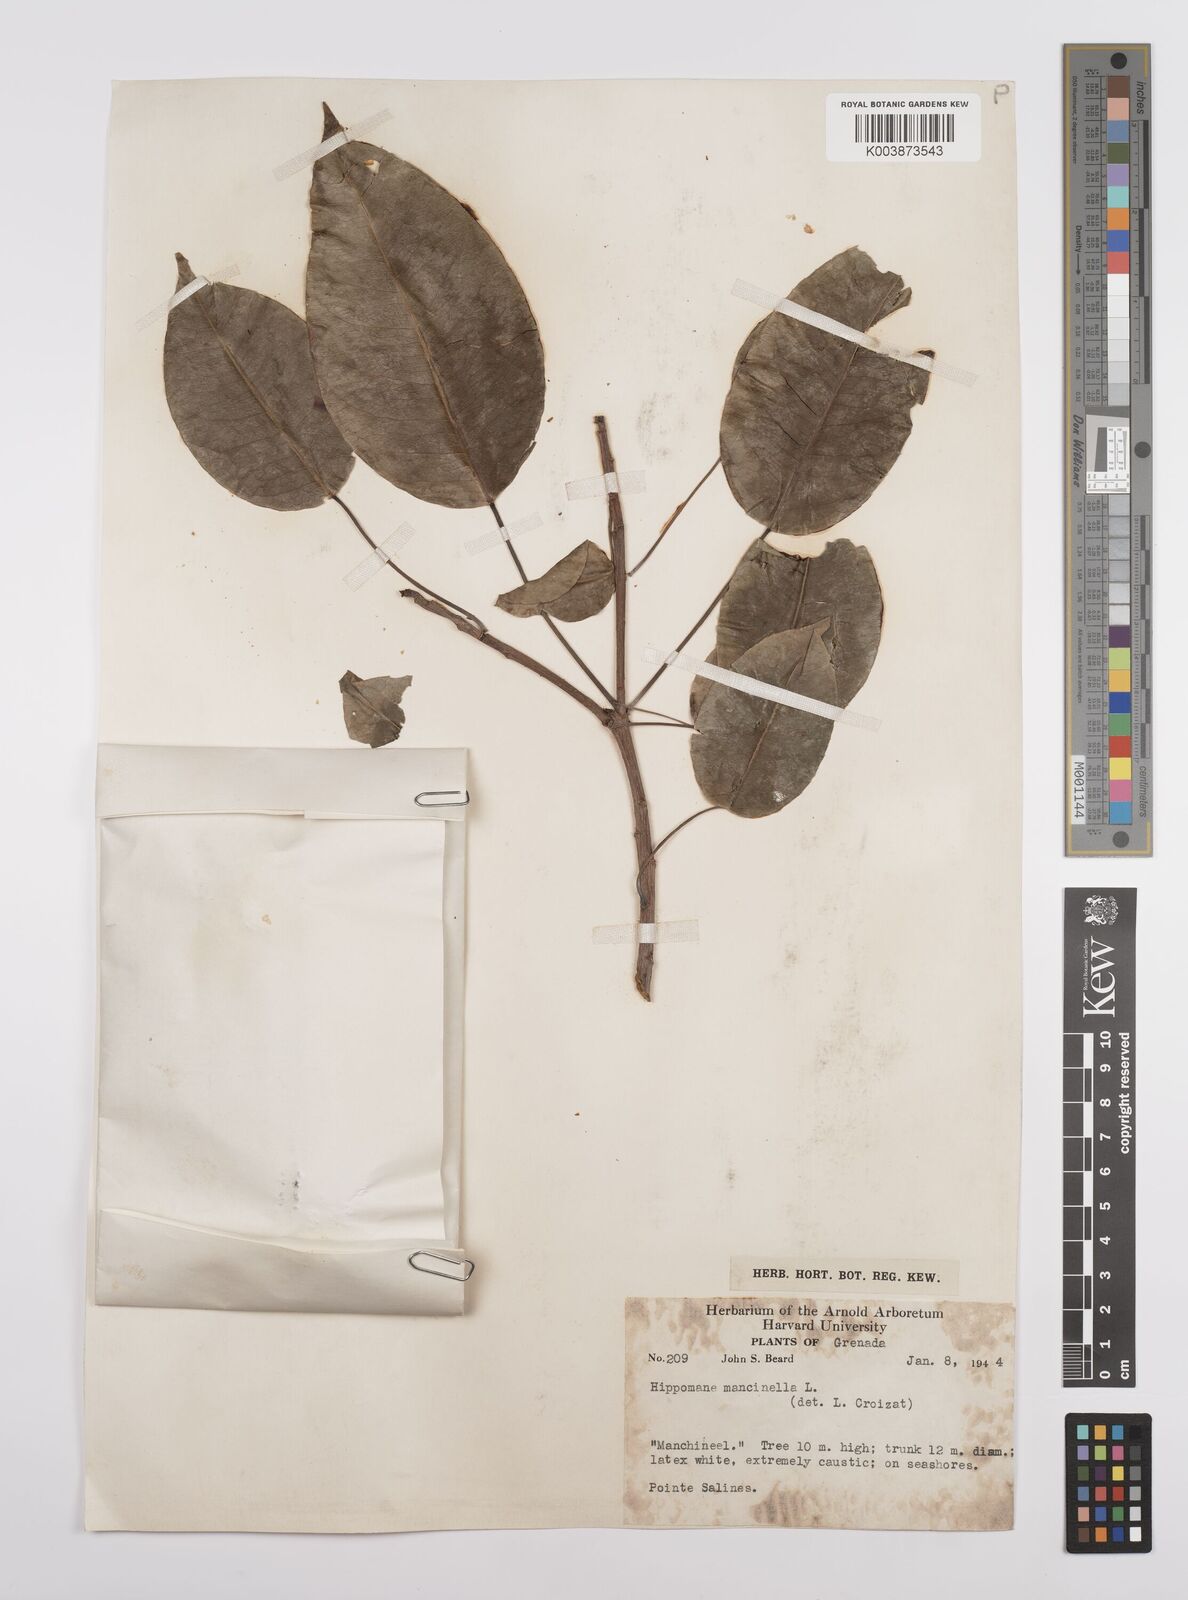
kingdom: Plantae
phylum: Tracheophyta
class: Magnoliopsida
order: Malpighiales
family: Euphorbiaceae
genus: Hippomane
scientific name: Hippomane mancinella
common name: Manchineel
